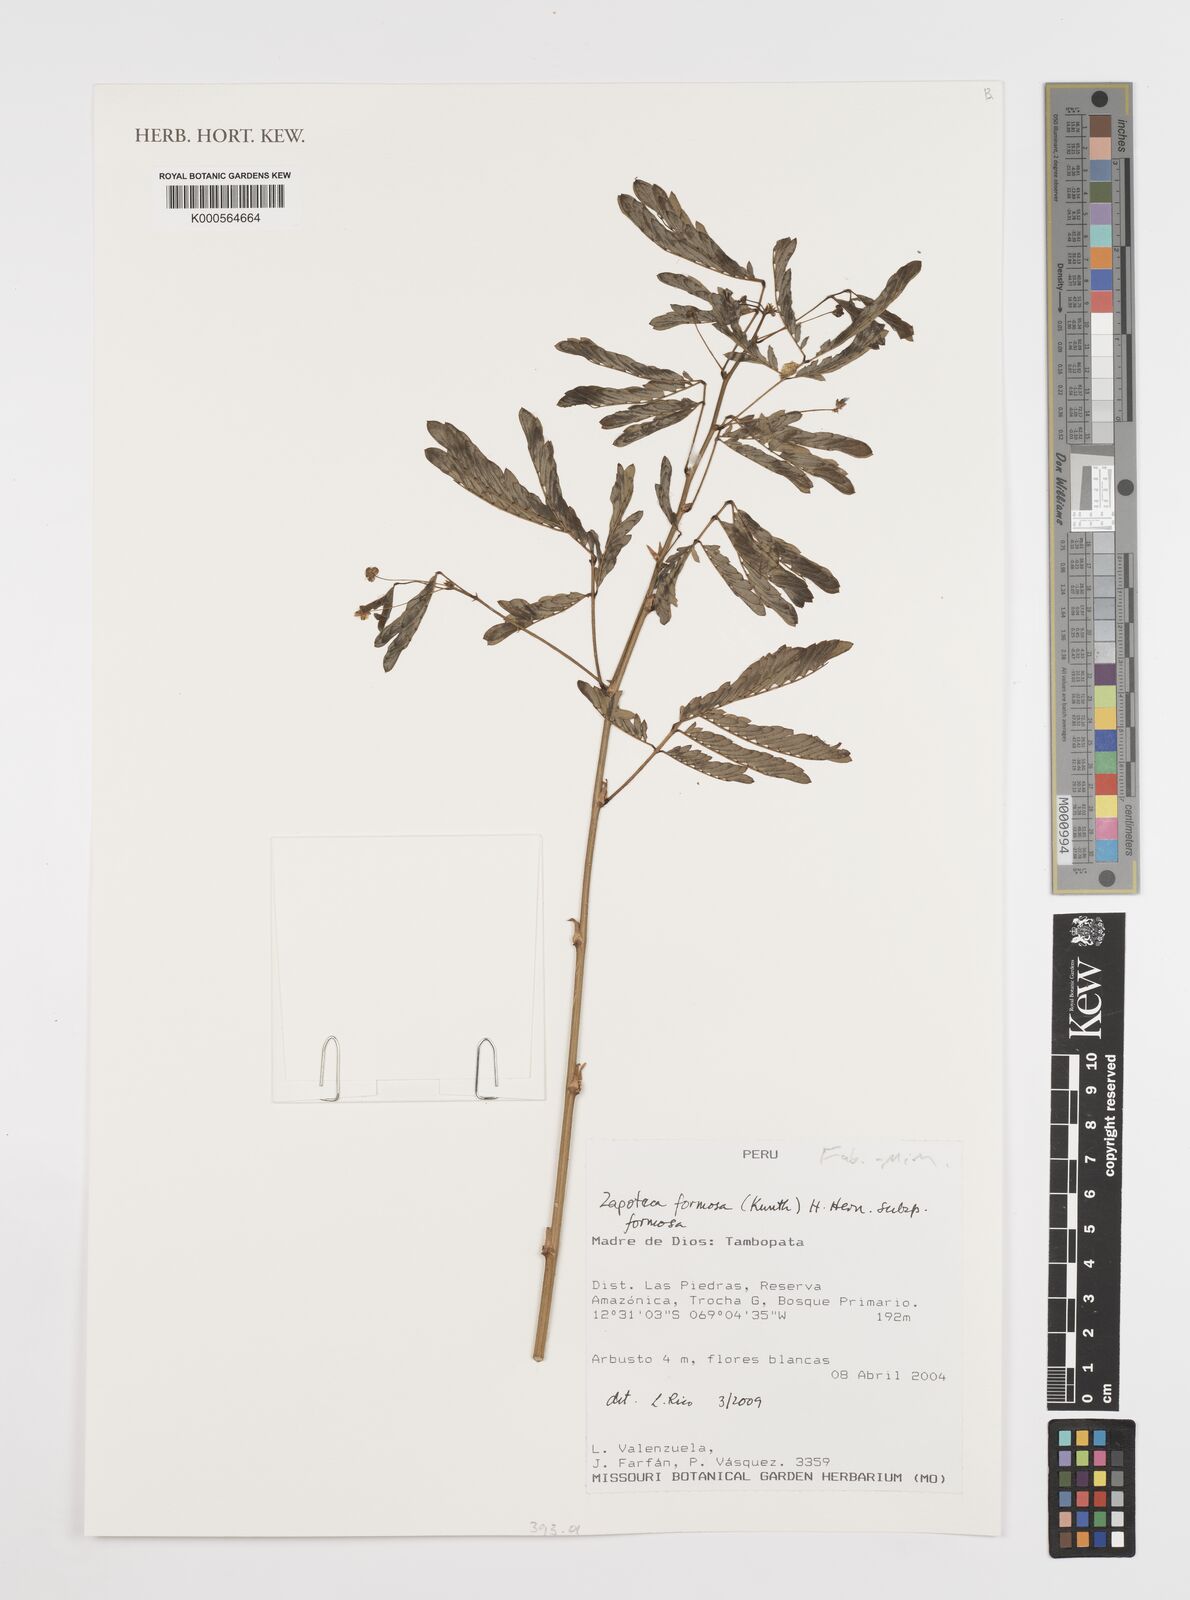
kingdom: Plantae
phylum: Tracheophyta
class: Magnoliopsida
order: Fabales
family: Fabaceae
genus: Zapoteca
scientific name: Zapoteca formosa
